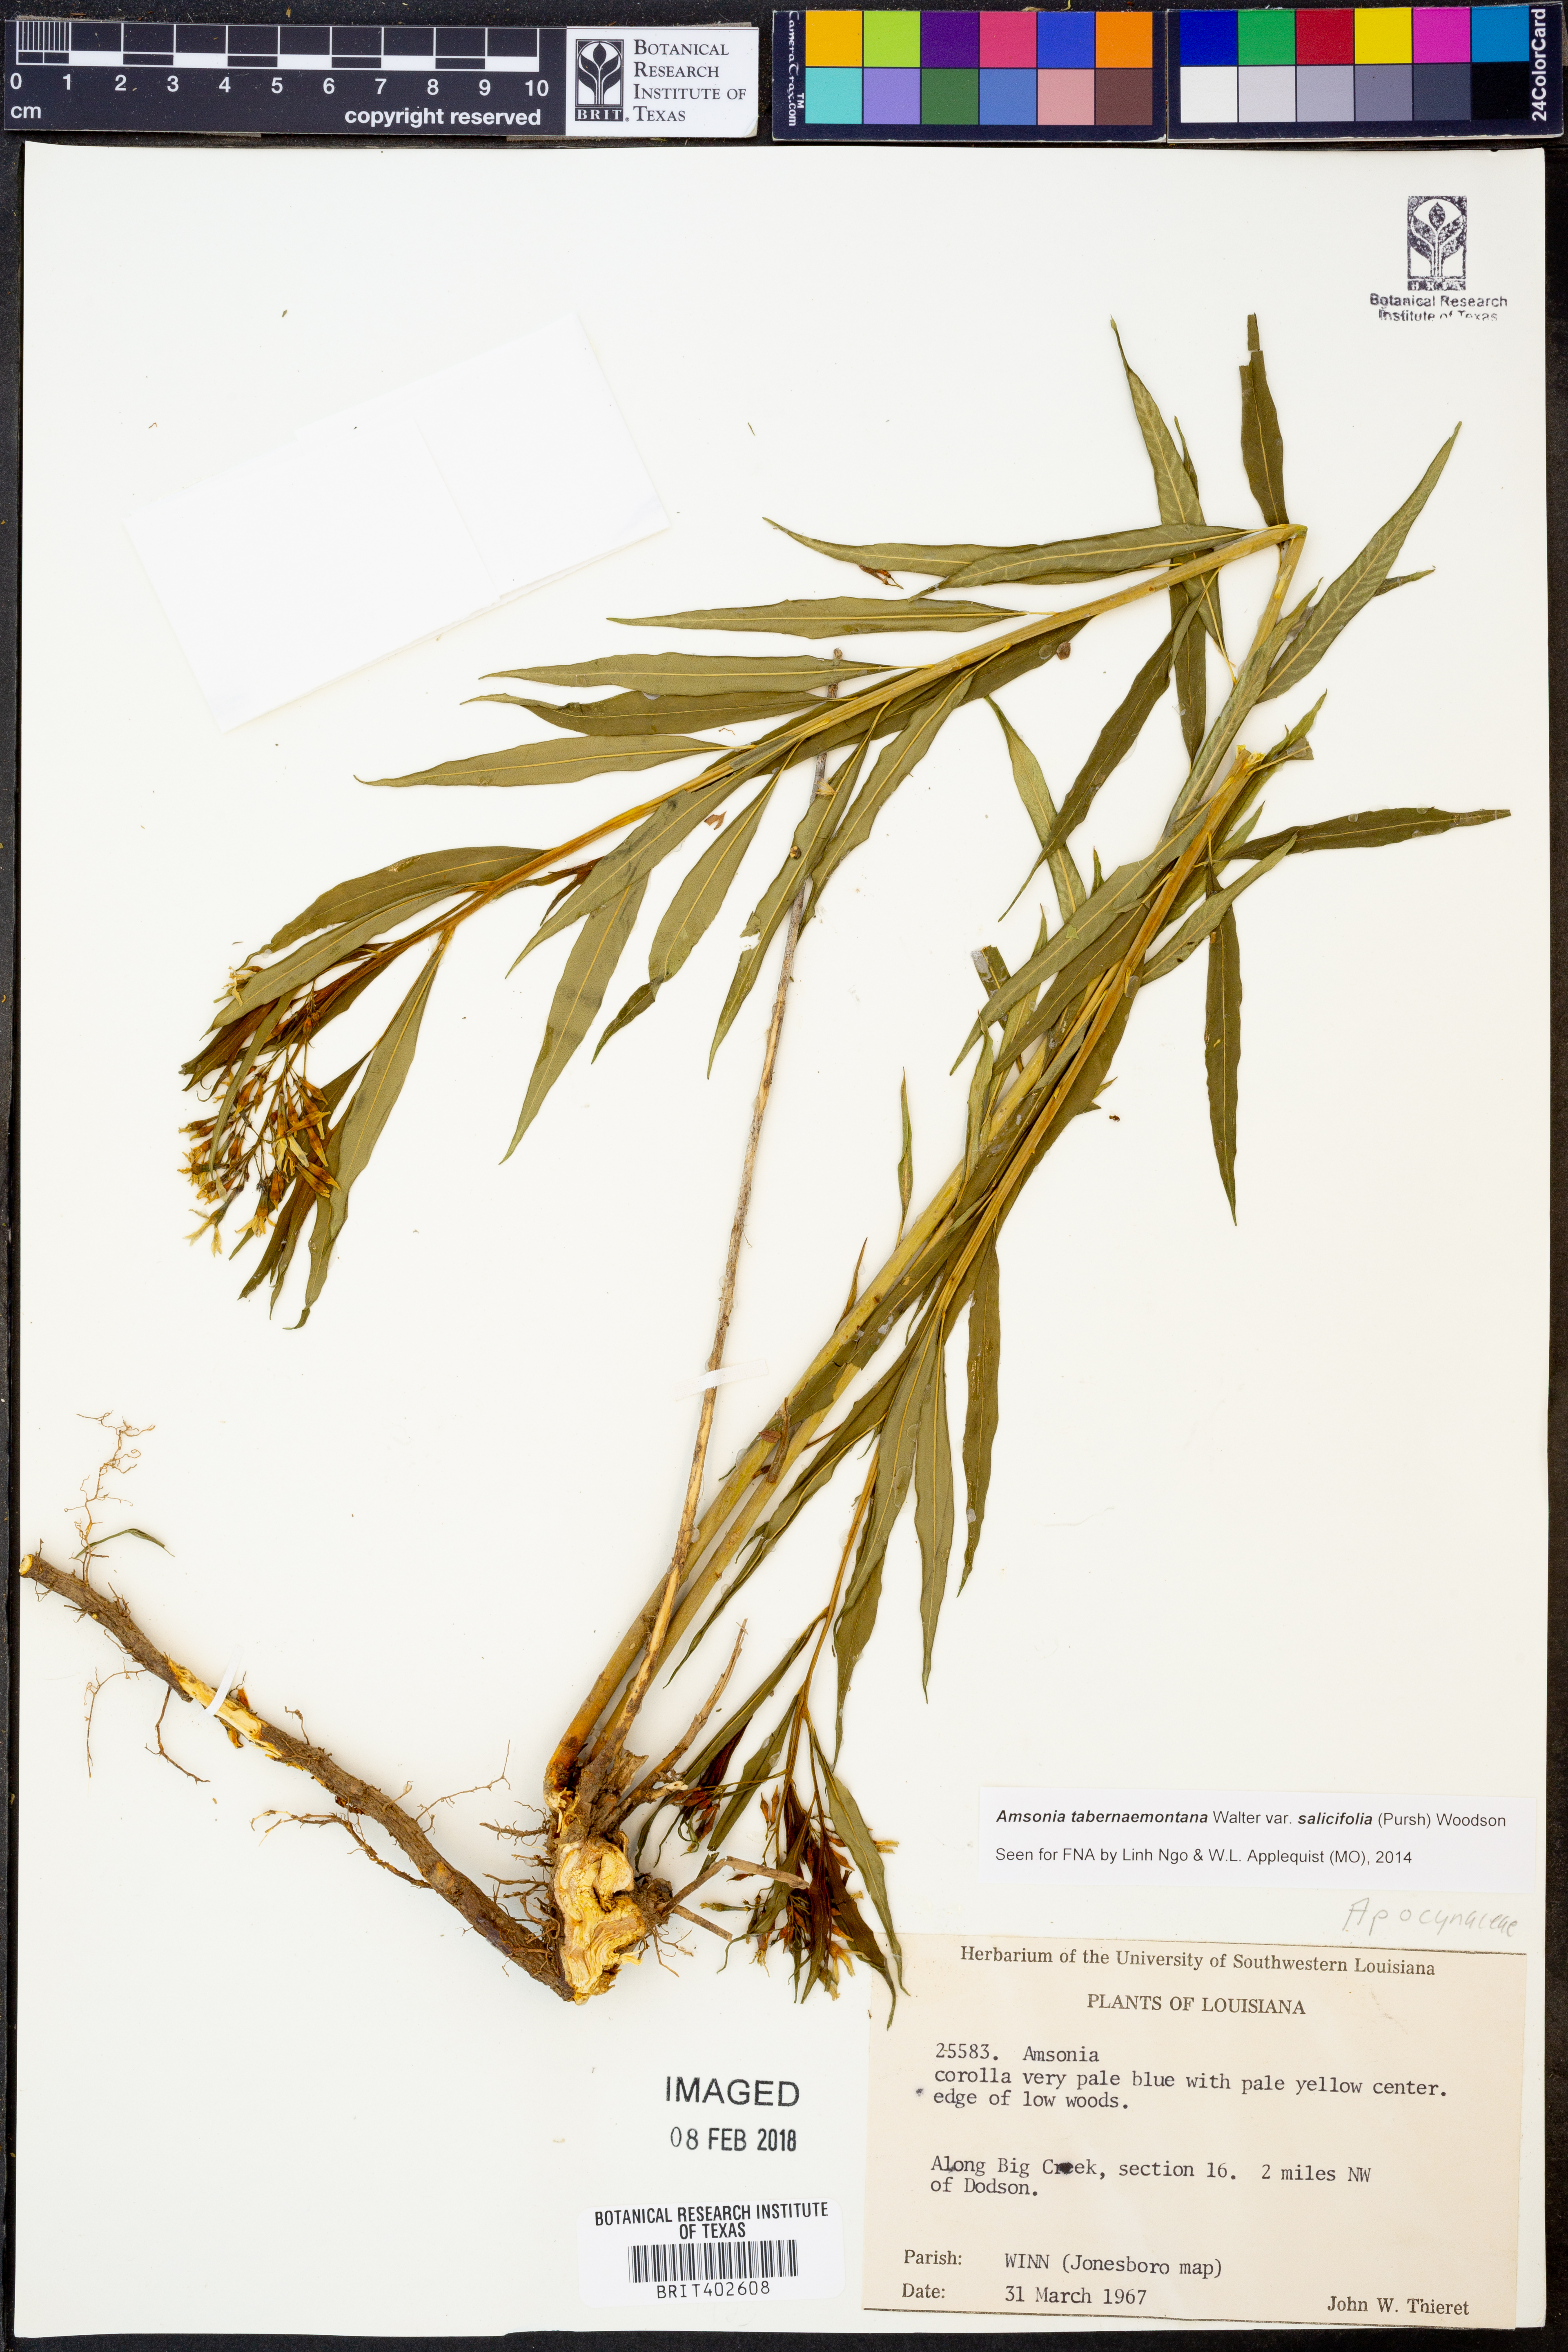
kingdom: Plantae
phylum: Tracheophyta
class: Magnoliopsida
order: Gentianales
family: Apocynaceae
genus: Amsonia
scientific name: Amsonia tabernaemontana
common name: Texas-star
